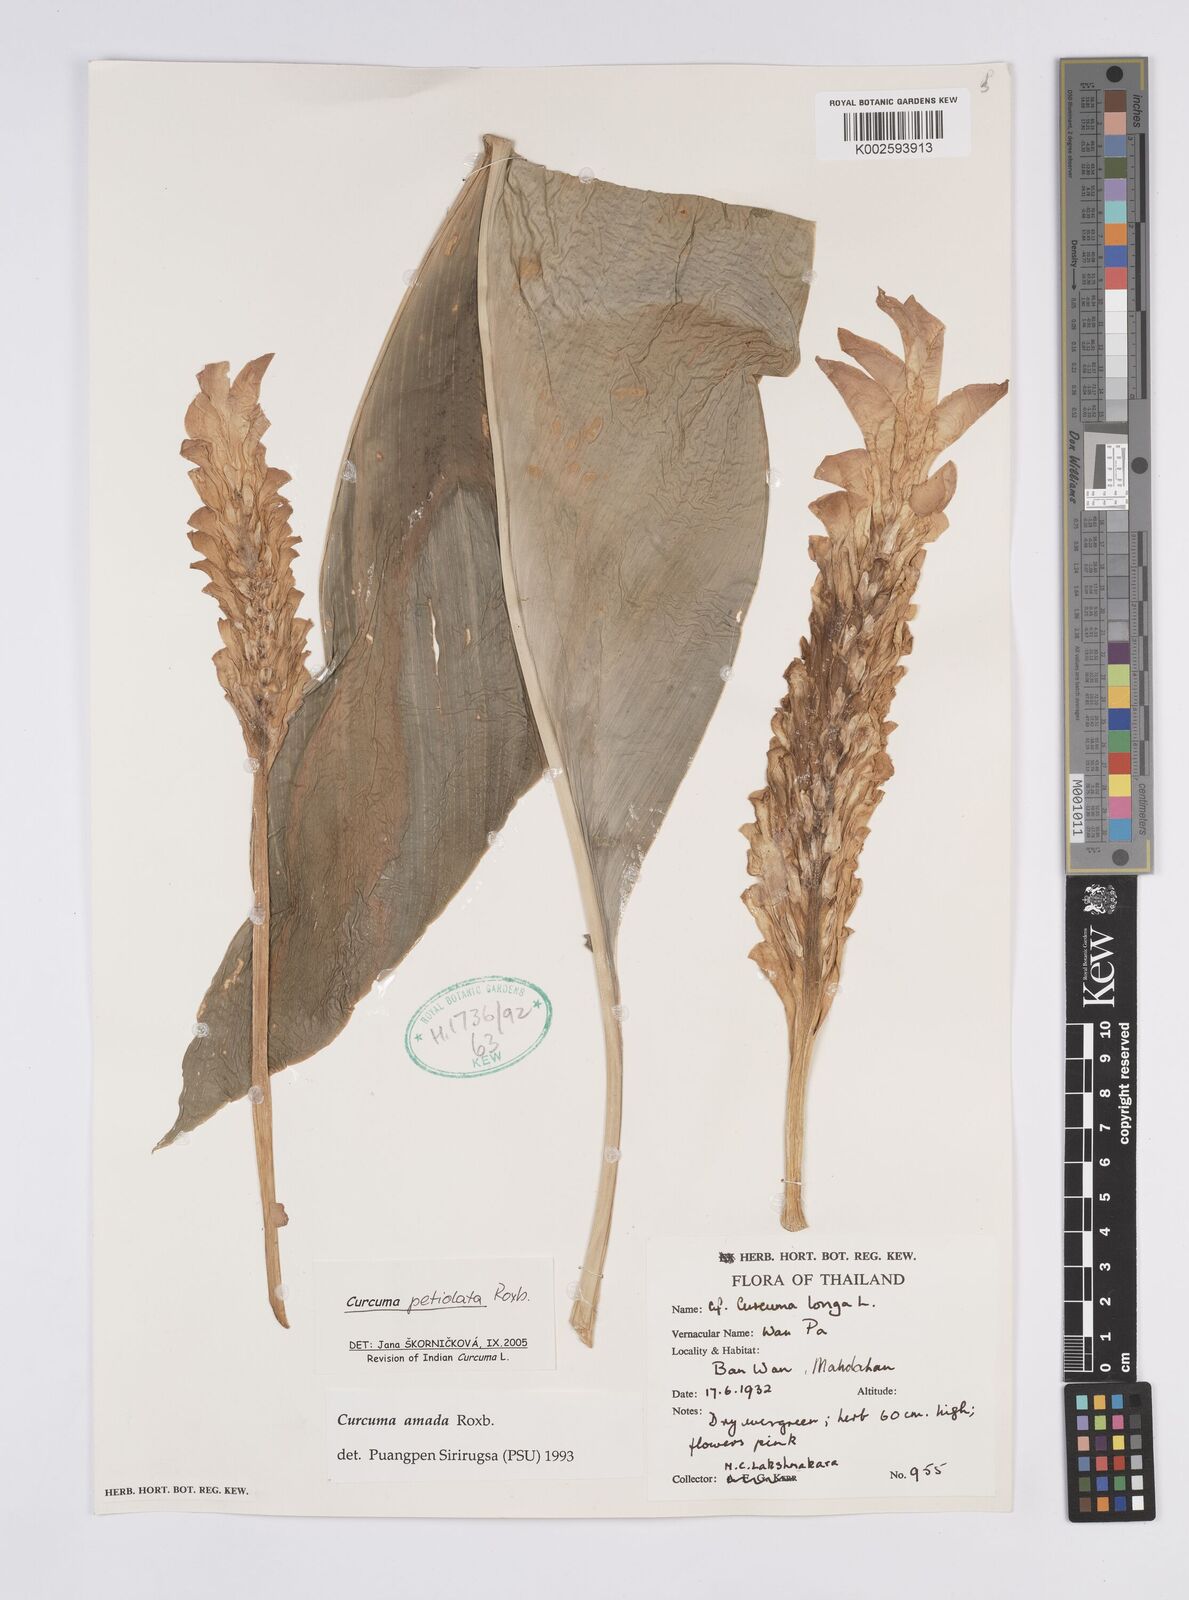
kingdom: Plantae
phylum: Tracheophyta
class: Liliopsida
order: Zingiberales
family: Zingiberaceae
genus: Curcuma
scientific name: Curcuma petiolata
